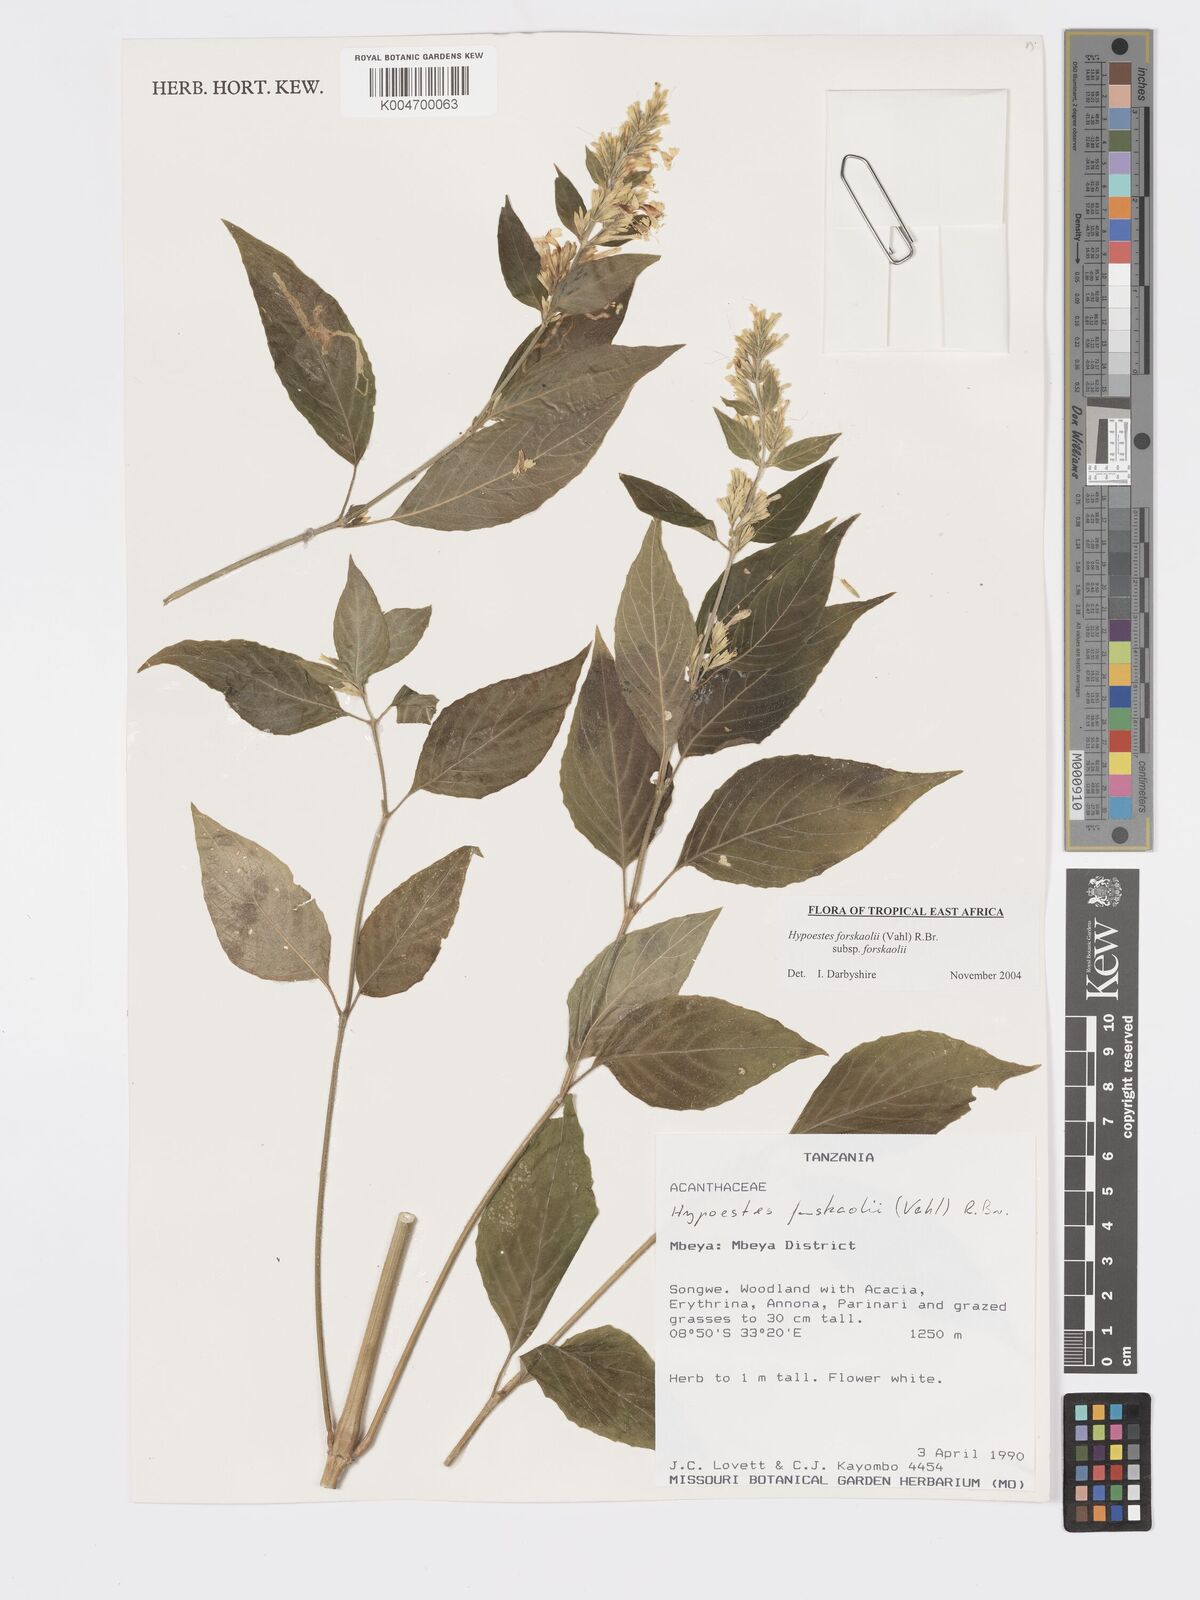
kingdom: Plantae
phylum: Tracheophyta
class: Magnoliopsida
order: Lamiales
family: Acanthaceae
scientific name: Acanthaceae
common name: Acanthaceae
